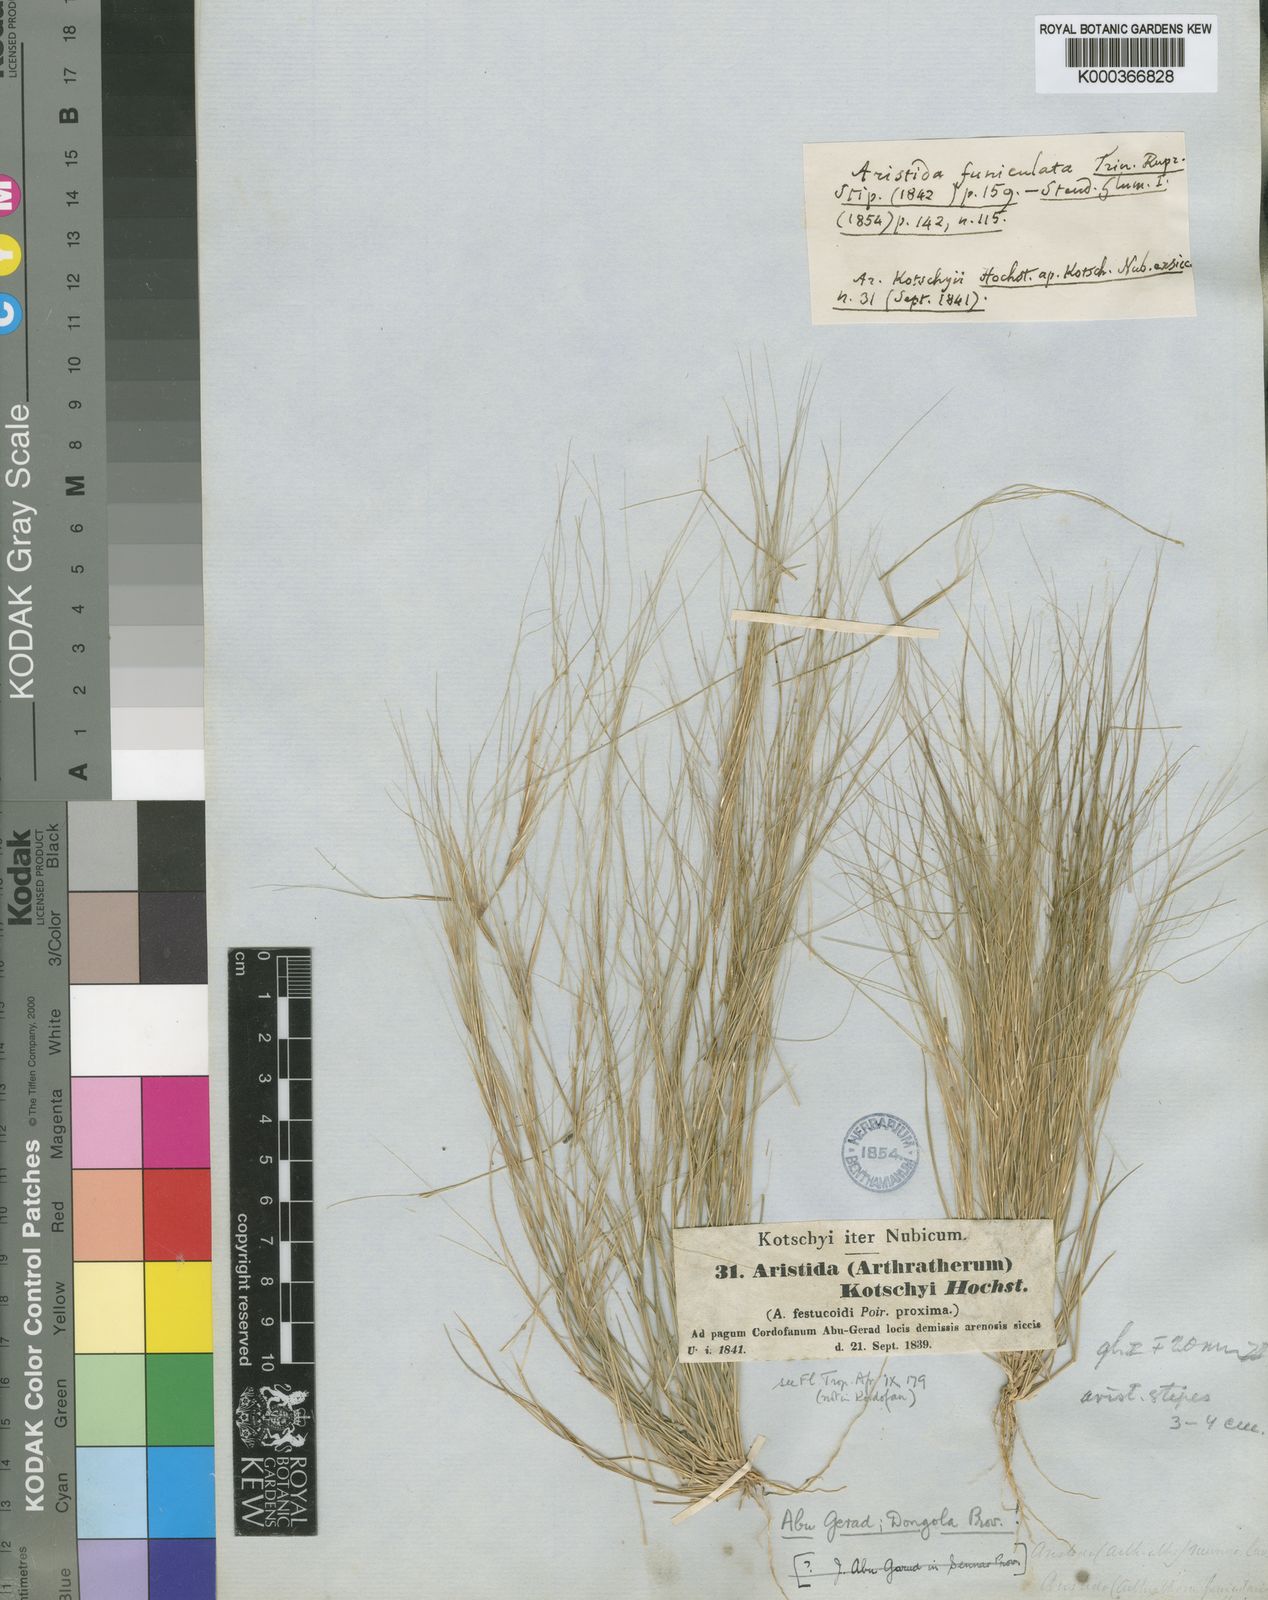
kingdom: Plantae
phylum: Tracheophyta
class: Liliopsida
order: Poales
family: Poaceae
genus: Aristida
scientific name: Aristida
